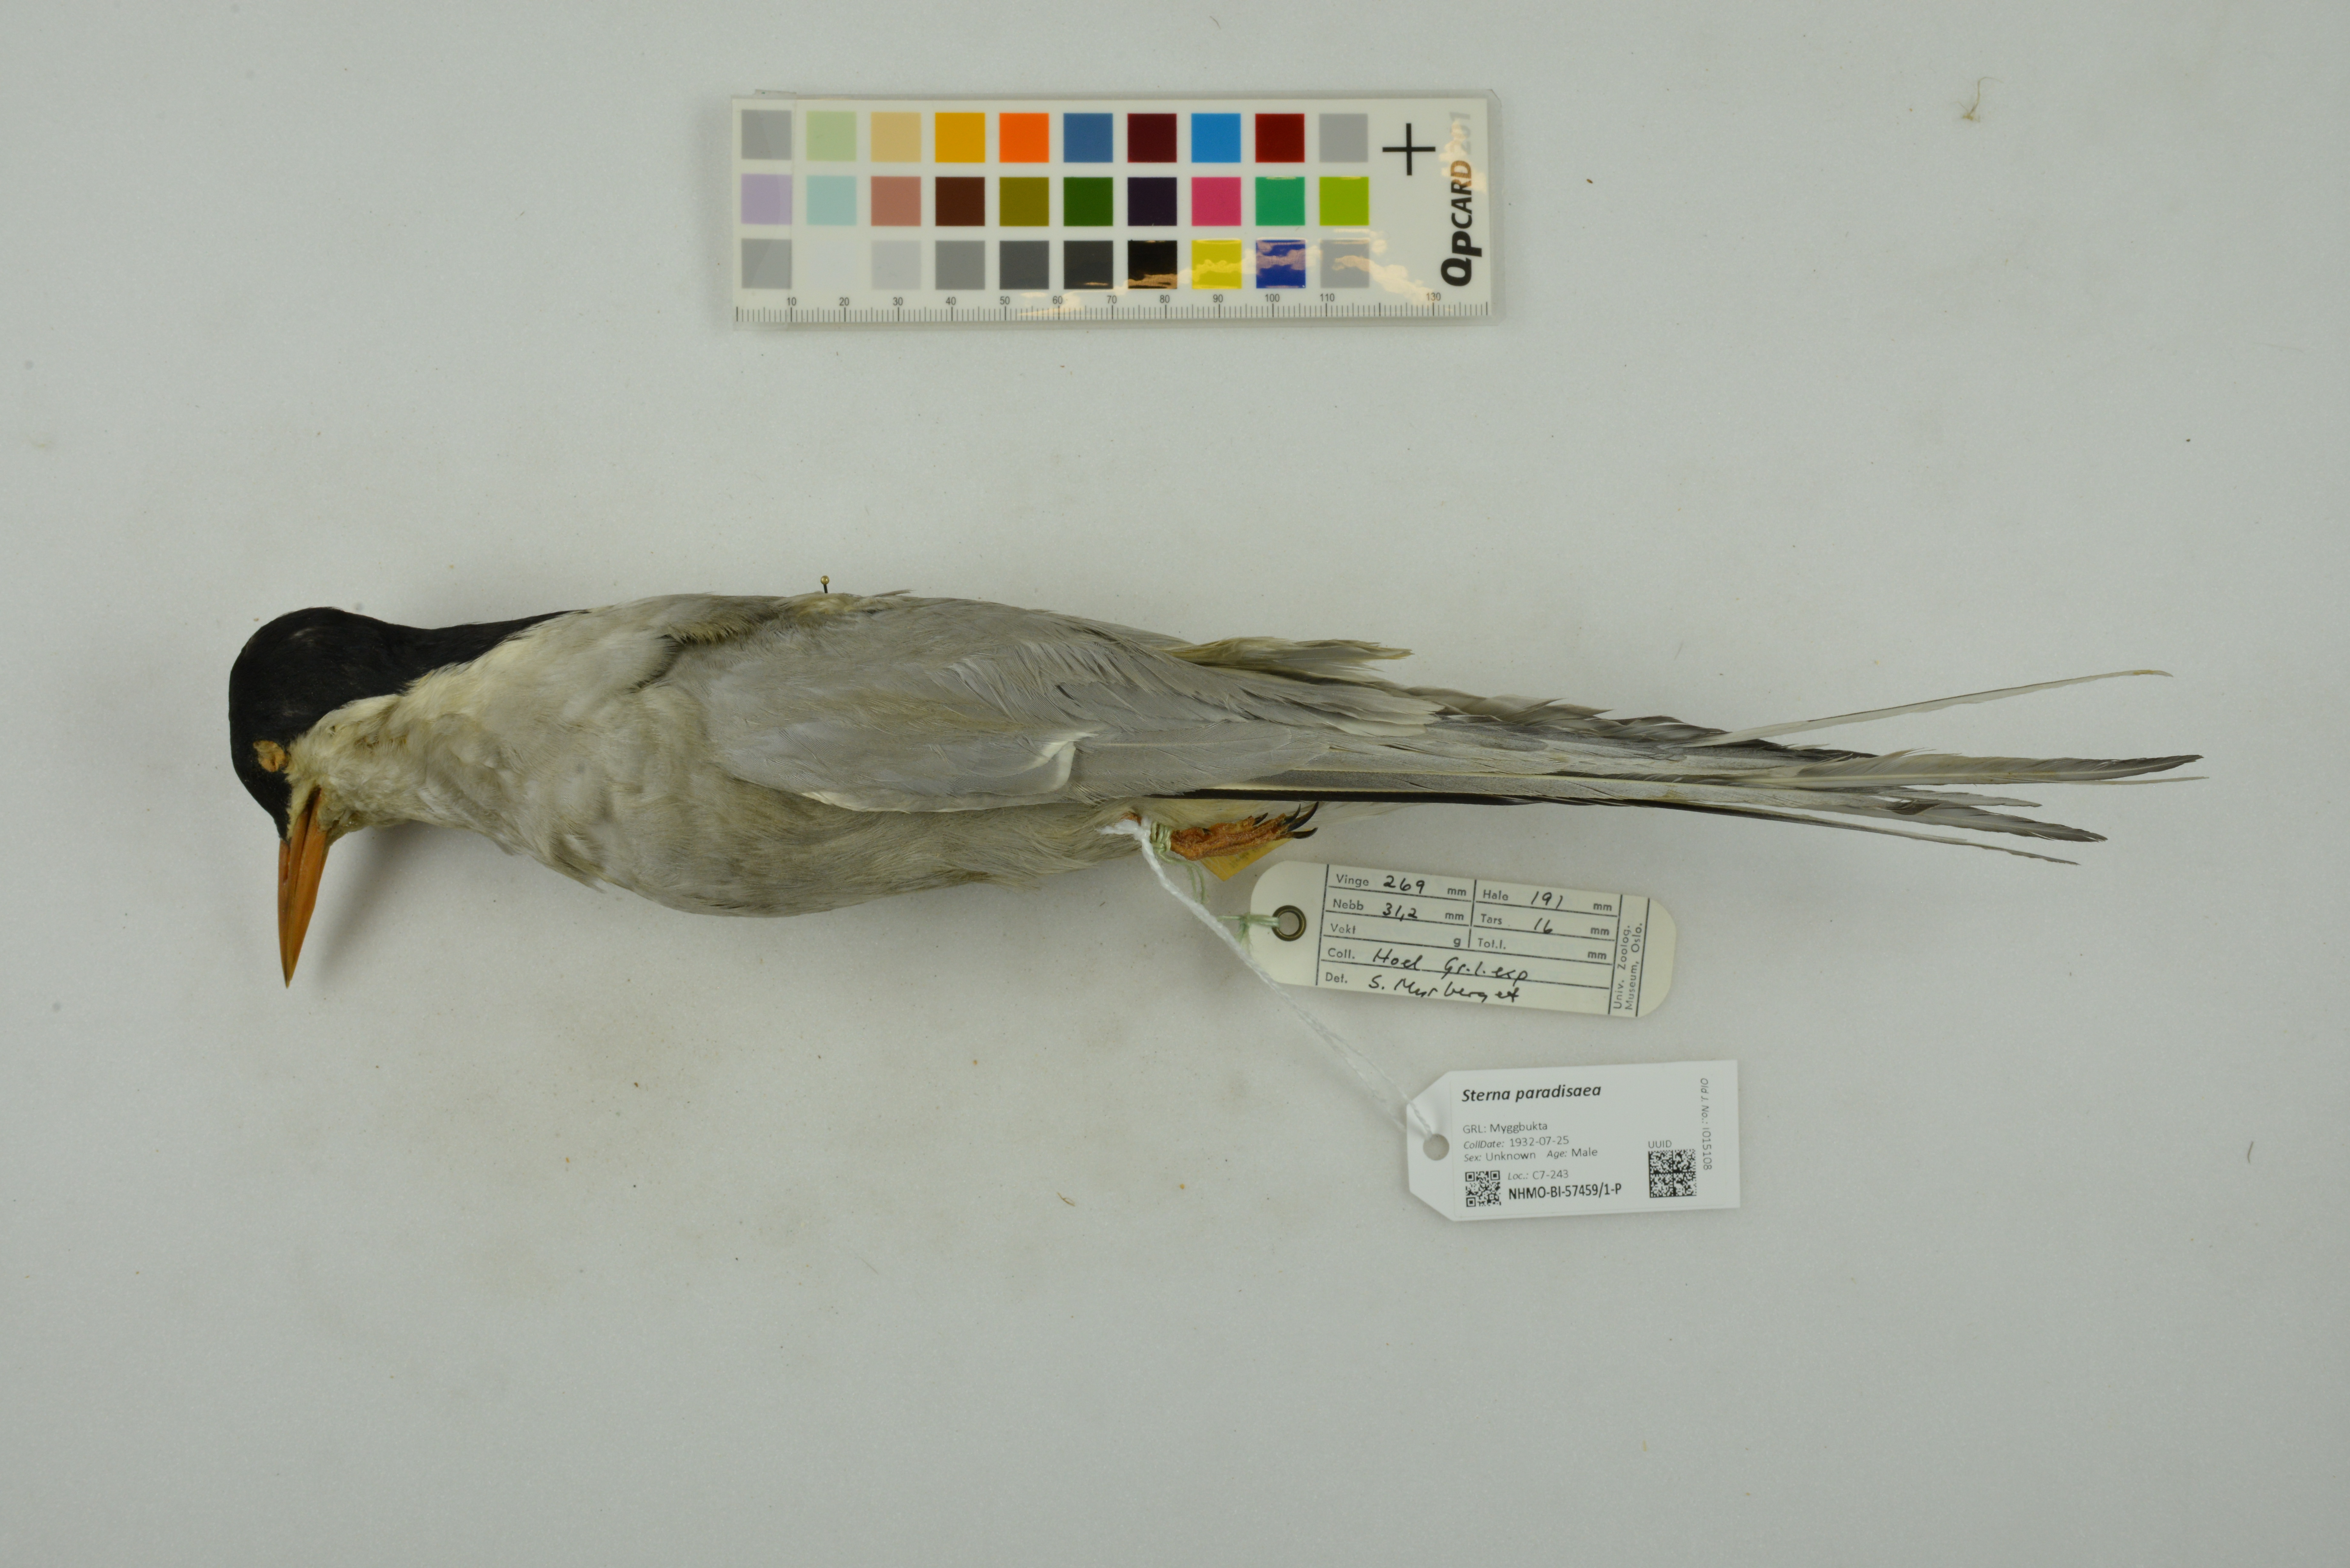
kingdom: Animalia
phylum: Chordata
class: Aves
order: Charadriiformes
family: Laridae
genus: Sterna
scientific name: Sterna paradisaea
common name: Arctic tern
